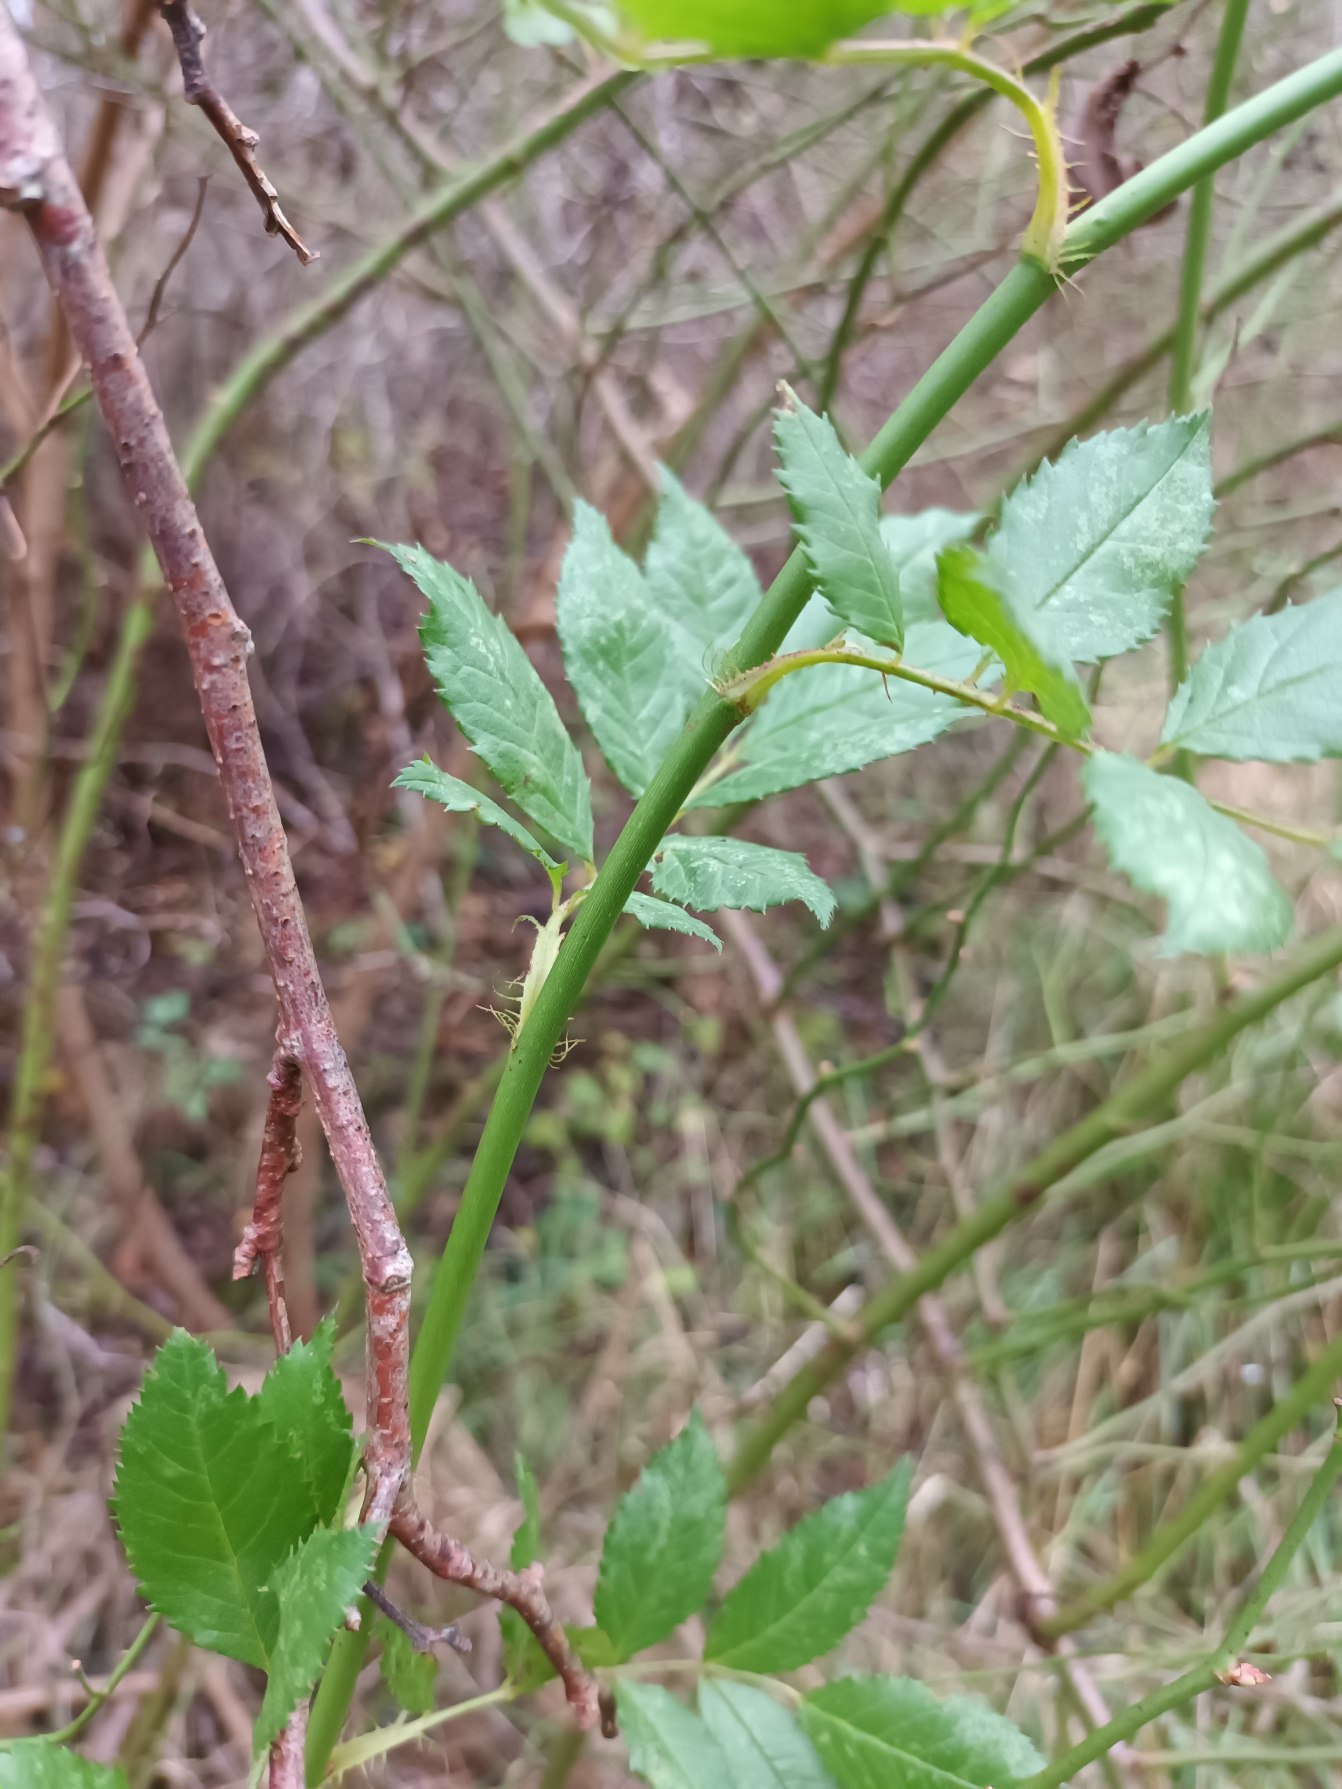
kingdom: Plantae
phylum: Tracheophyta
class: Magnoliopsida
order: Rosales
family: Rosaceae
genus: Rosa
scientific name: Rosa multiflora
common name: Mangeblomstret rose
